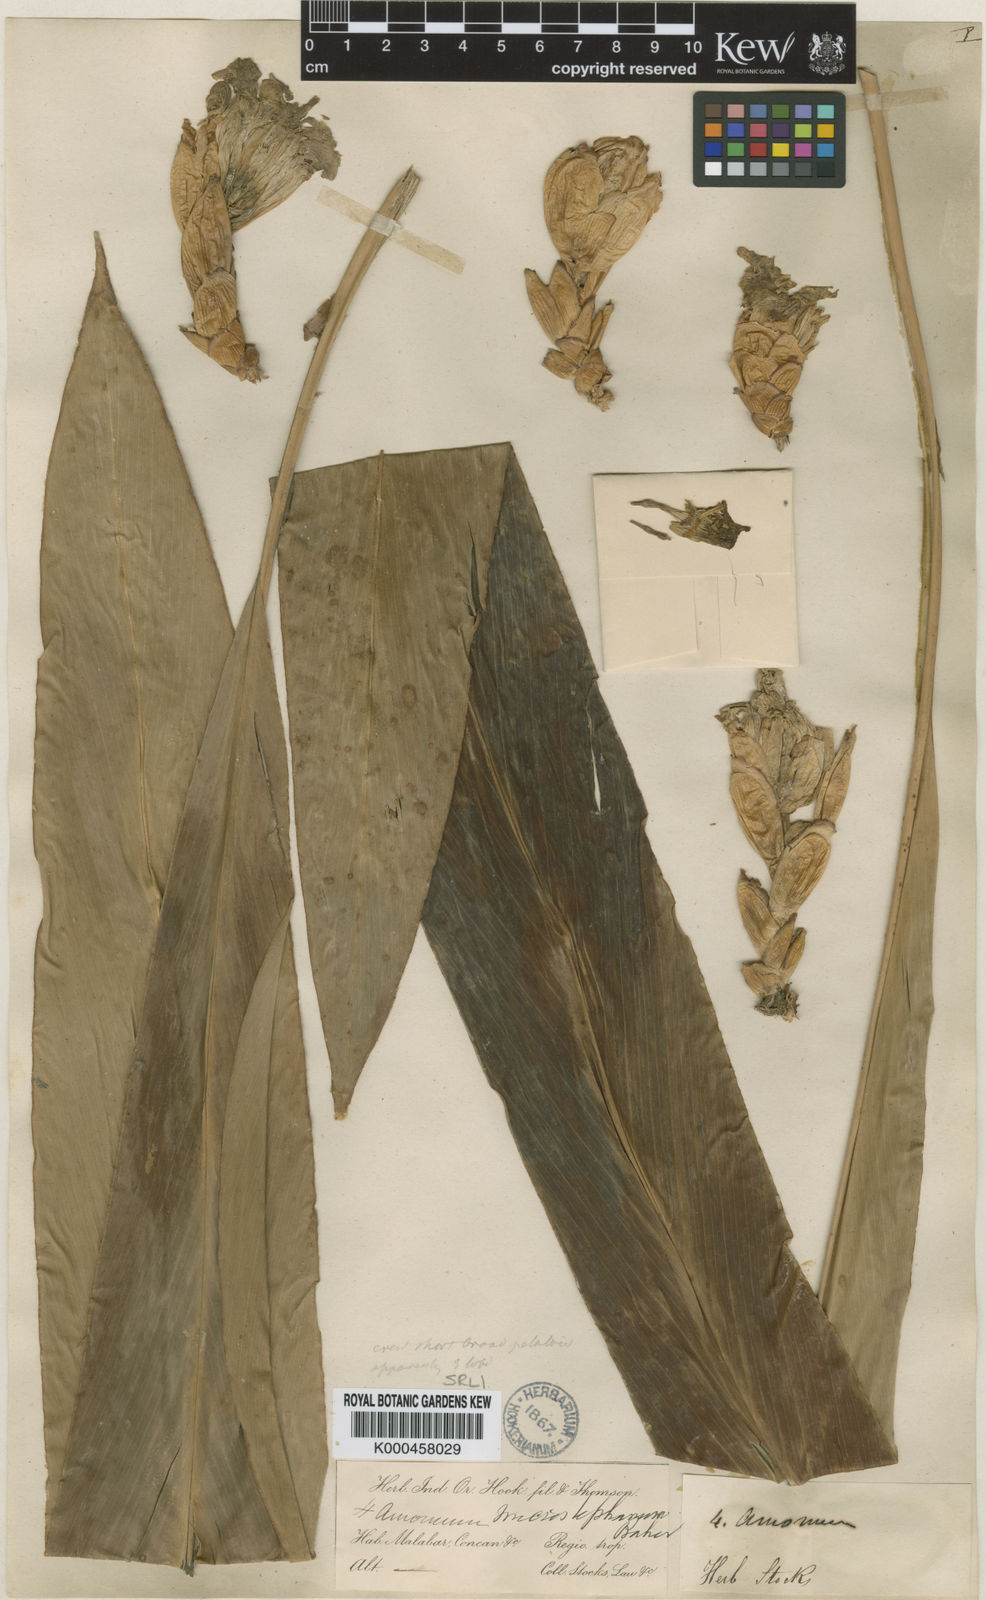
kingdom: Plantae
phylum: Tracheophyta
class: Liliopsida
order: Zingiberales
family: Zingiberaceae
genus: Amomum
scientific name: Amomum pterocarpum
